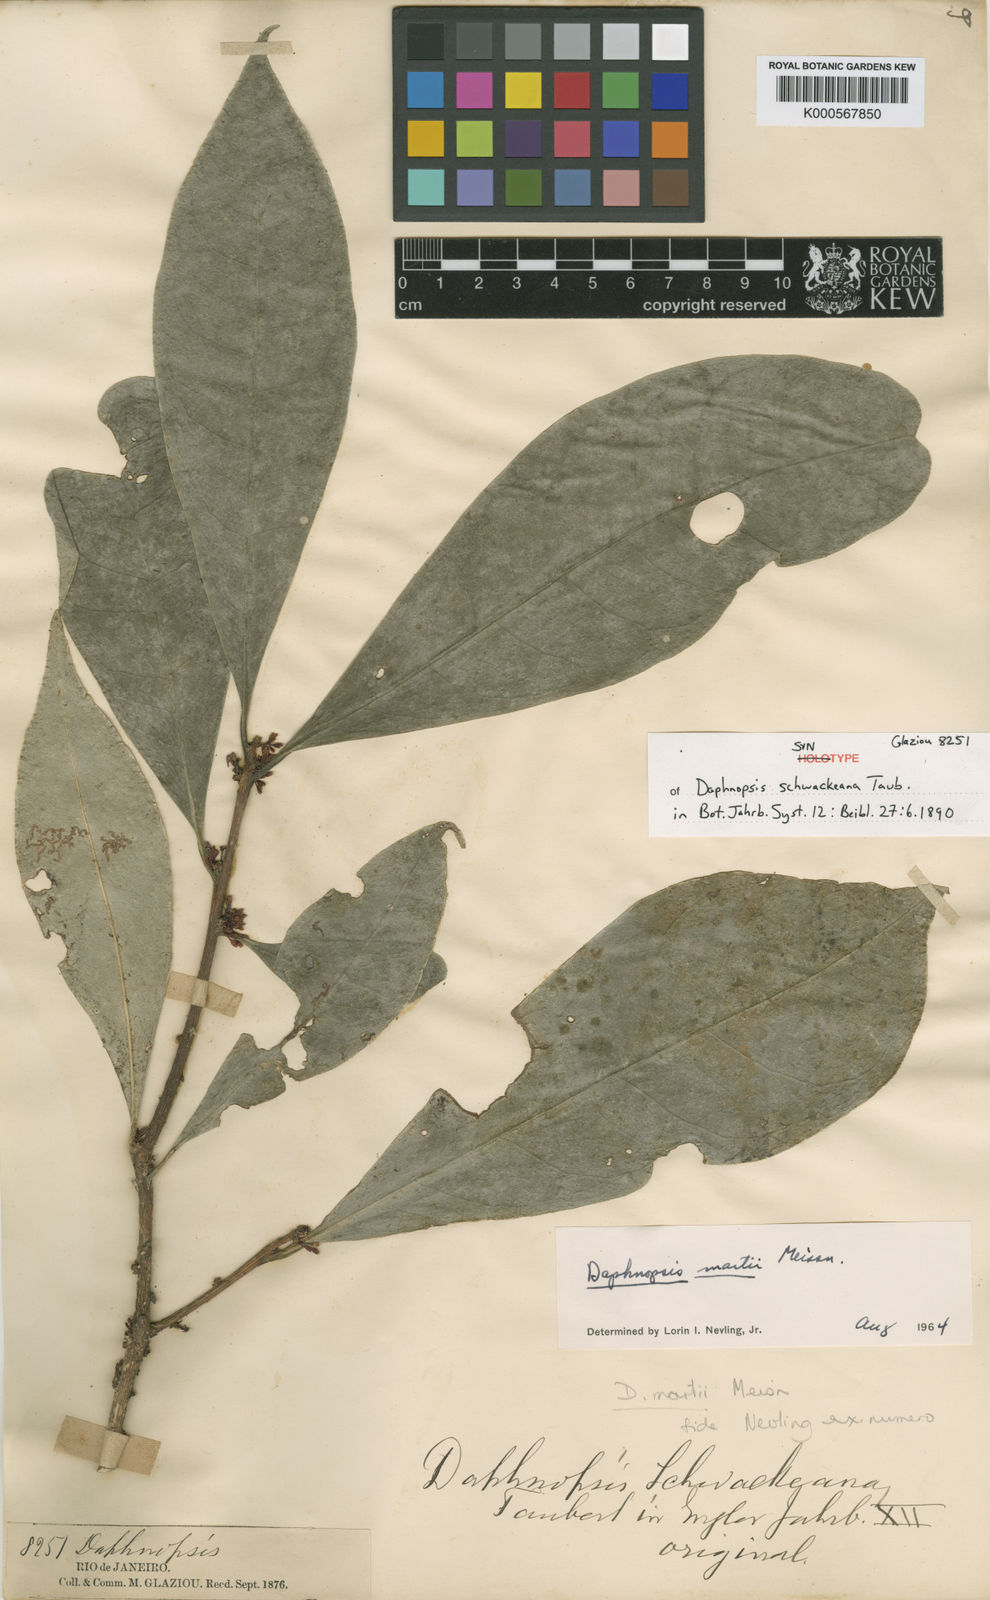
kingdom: Plantae
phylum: Tracheophyta
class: Magnoliopsida
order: Malvales
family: Thymelaeaceae
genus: Daphnopsis
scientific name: Daphnopsis martii
